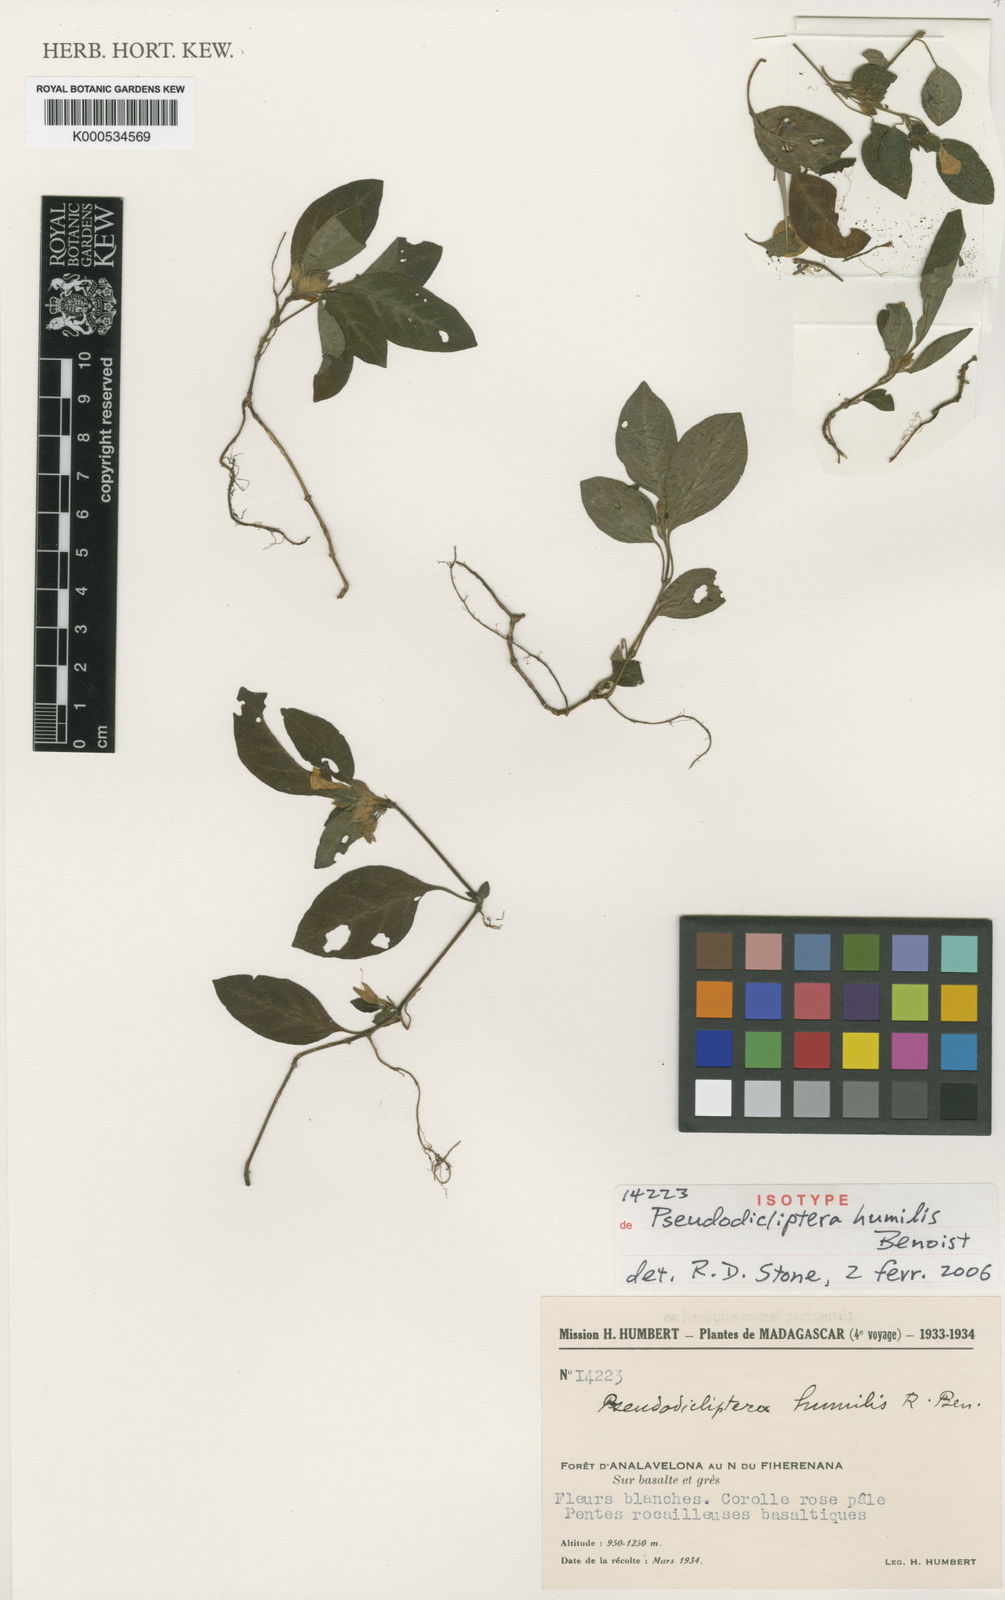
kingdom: Plantae
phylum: Tracheophyta
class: Magnoliopsida
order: Lamiales
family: Acanthaceae
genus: Pseudodicliptera
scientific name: Pseudodicliptera humilis
